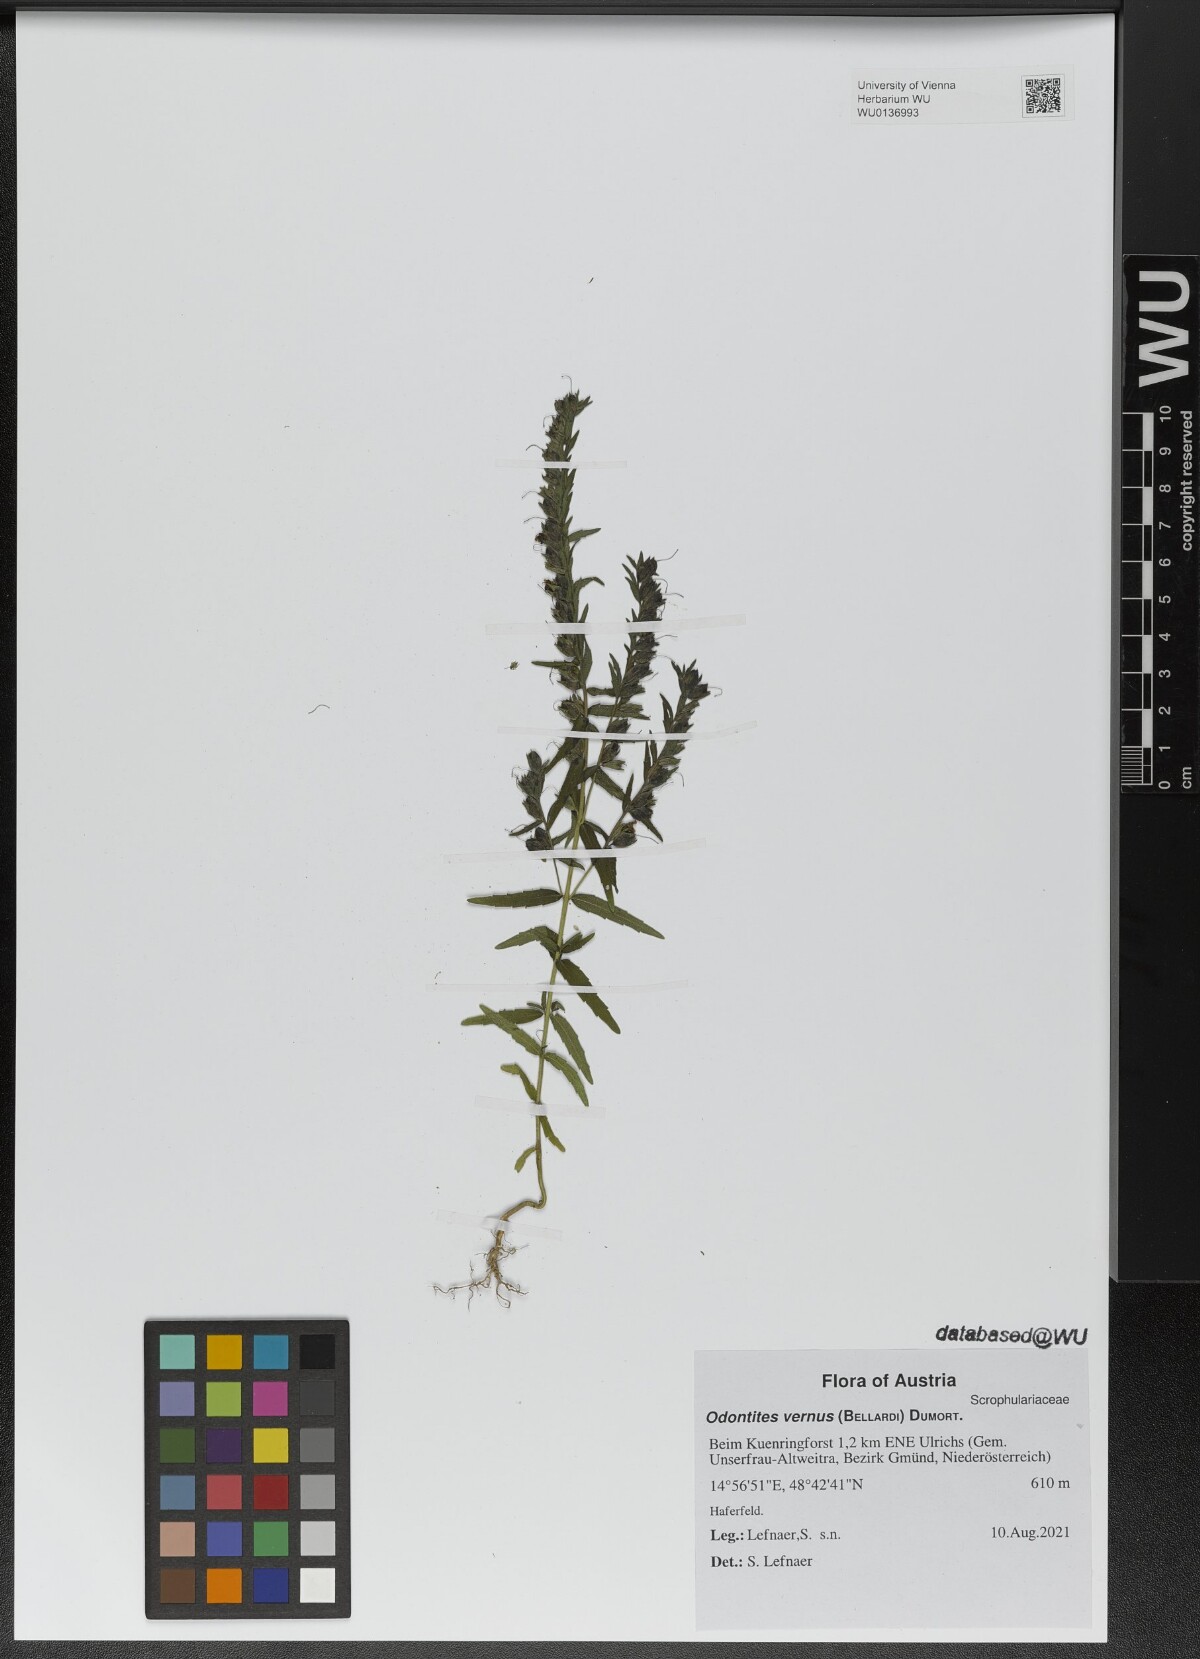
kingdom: Plantae
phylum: Tracheophyta
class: Magnoliopsida
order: Lamiales
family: Orobanchaceae
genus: Odontites
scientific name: Odontites vernus
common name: Red bartsia
